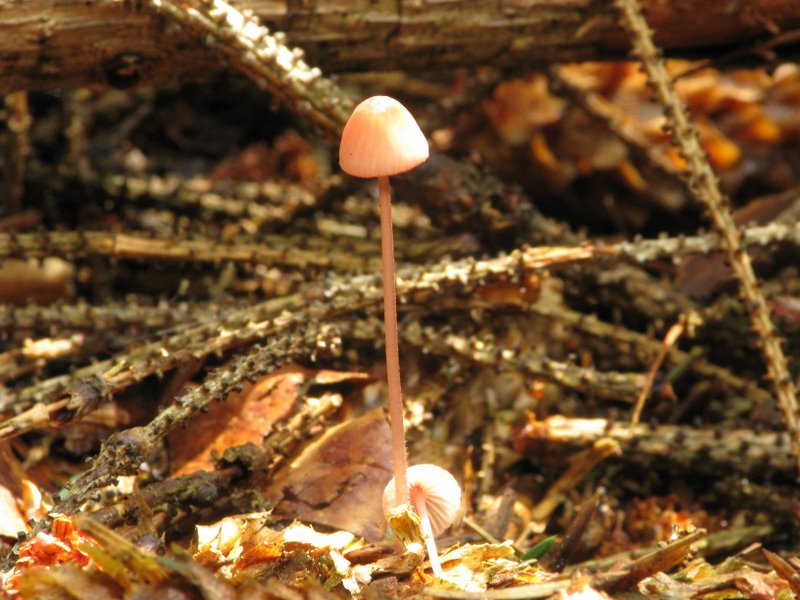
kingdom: Fungi
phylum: Basidiomycota
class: Agaricomycetes
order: Agaricales
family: Mycenaceae
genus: Mycena
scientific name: Mycena sanguinolenta
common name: rødmælket huesvamp
